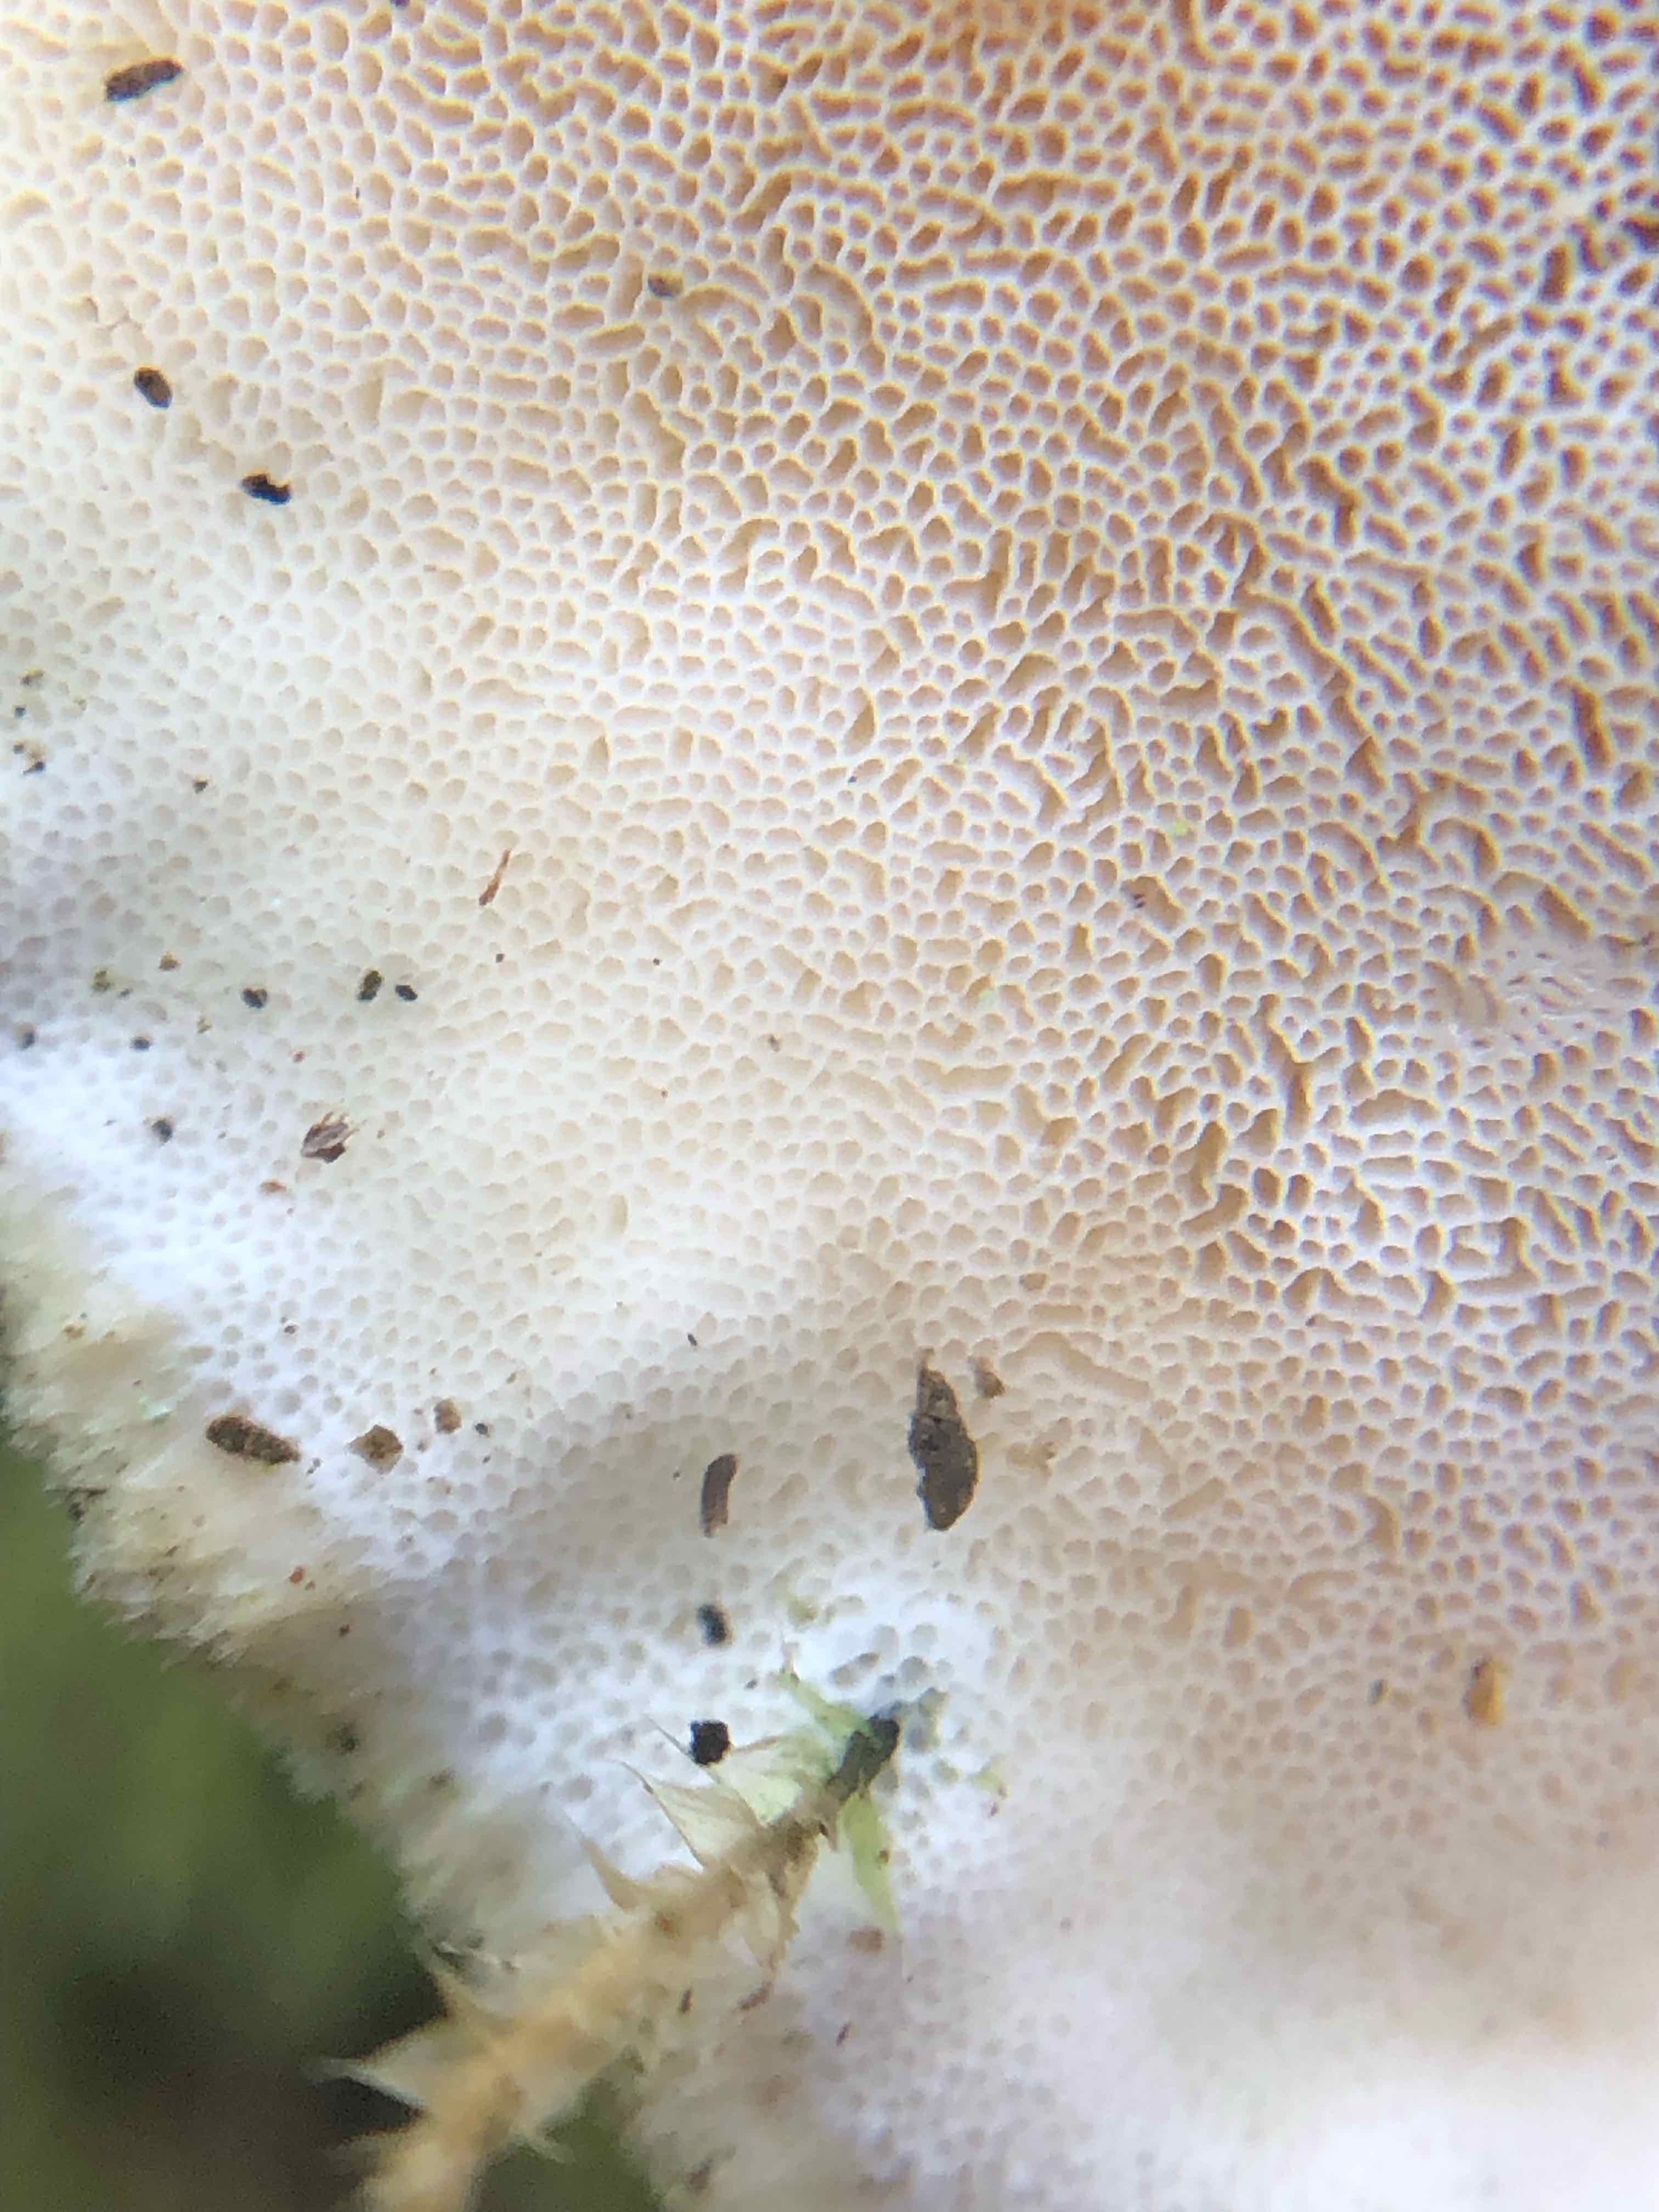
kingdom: Fungi
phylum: Basidiomycota
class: Agaricomycetes
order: Polyporales
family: Polyporaceae
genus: Trametes
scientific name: Trametes hirsuta
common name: håret læderporesvamp
